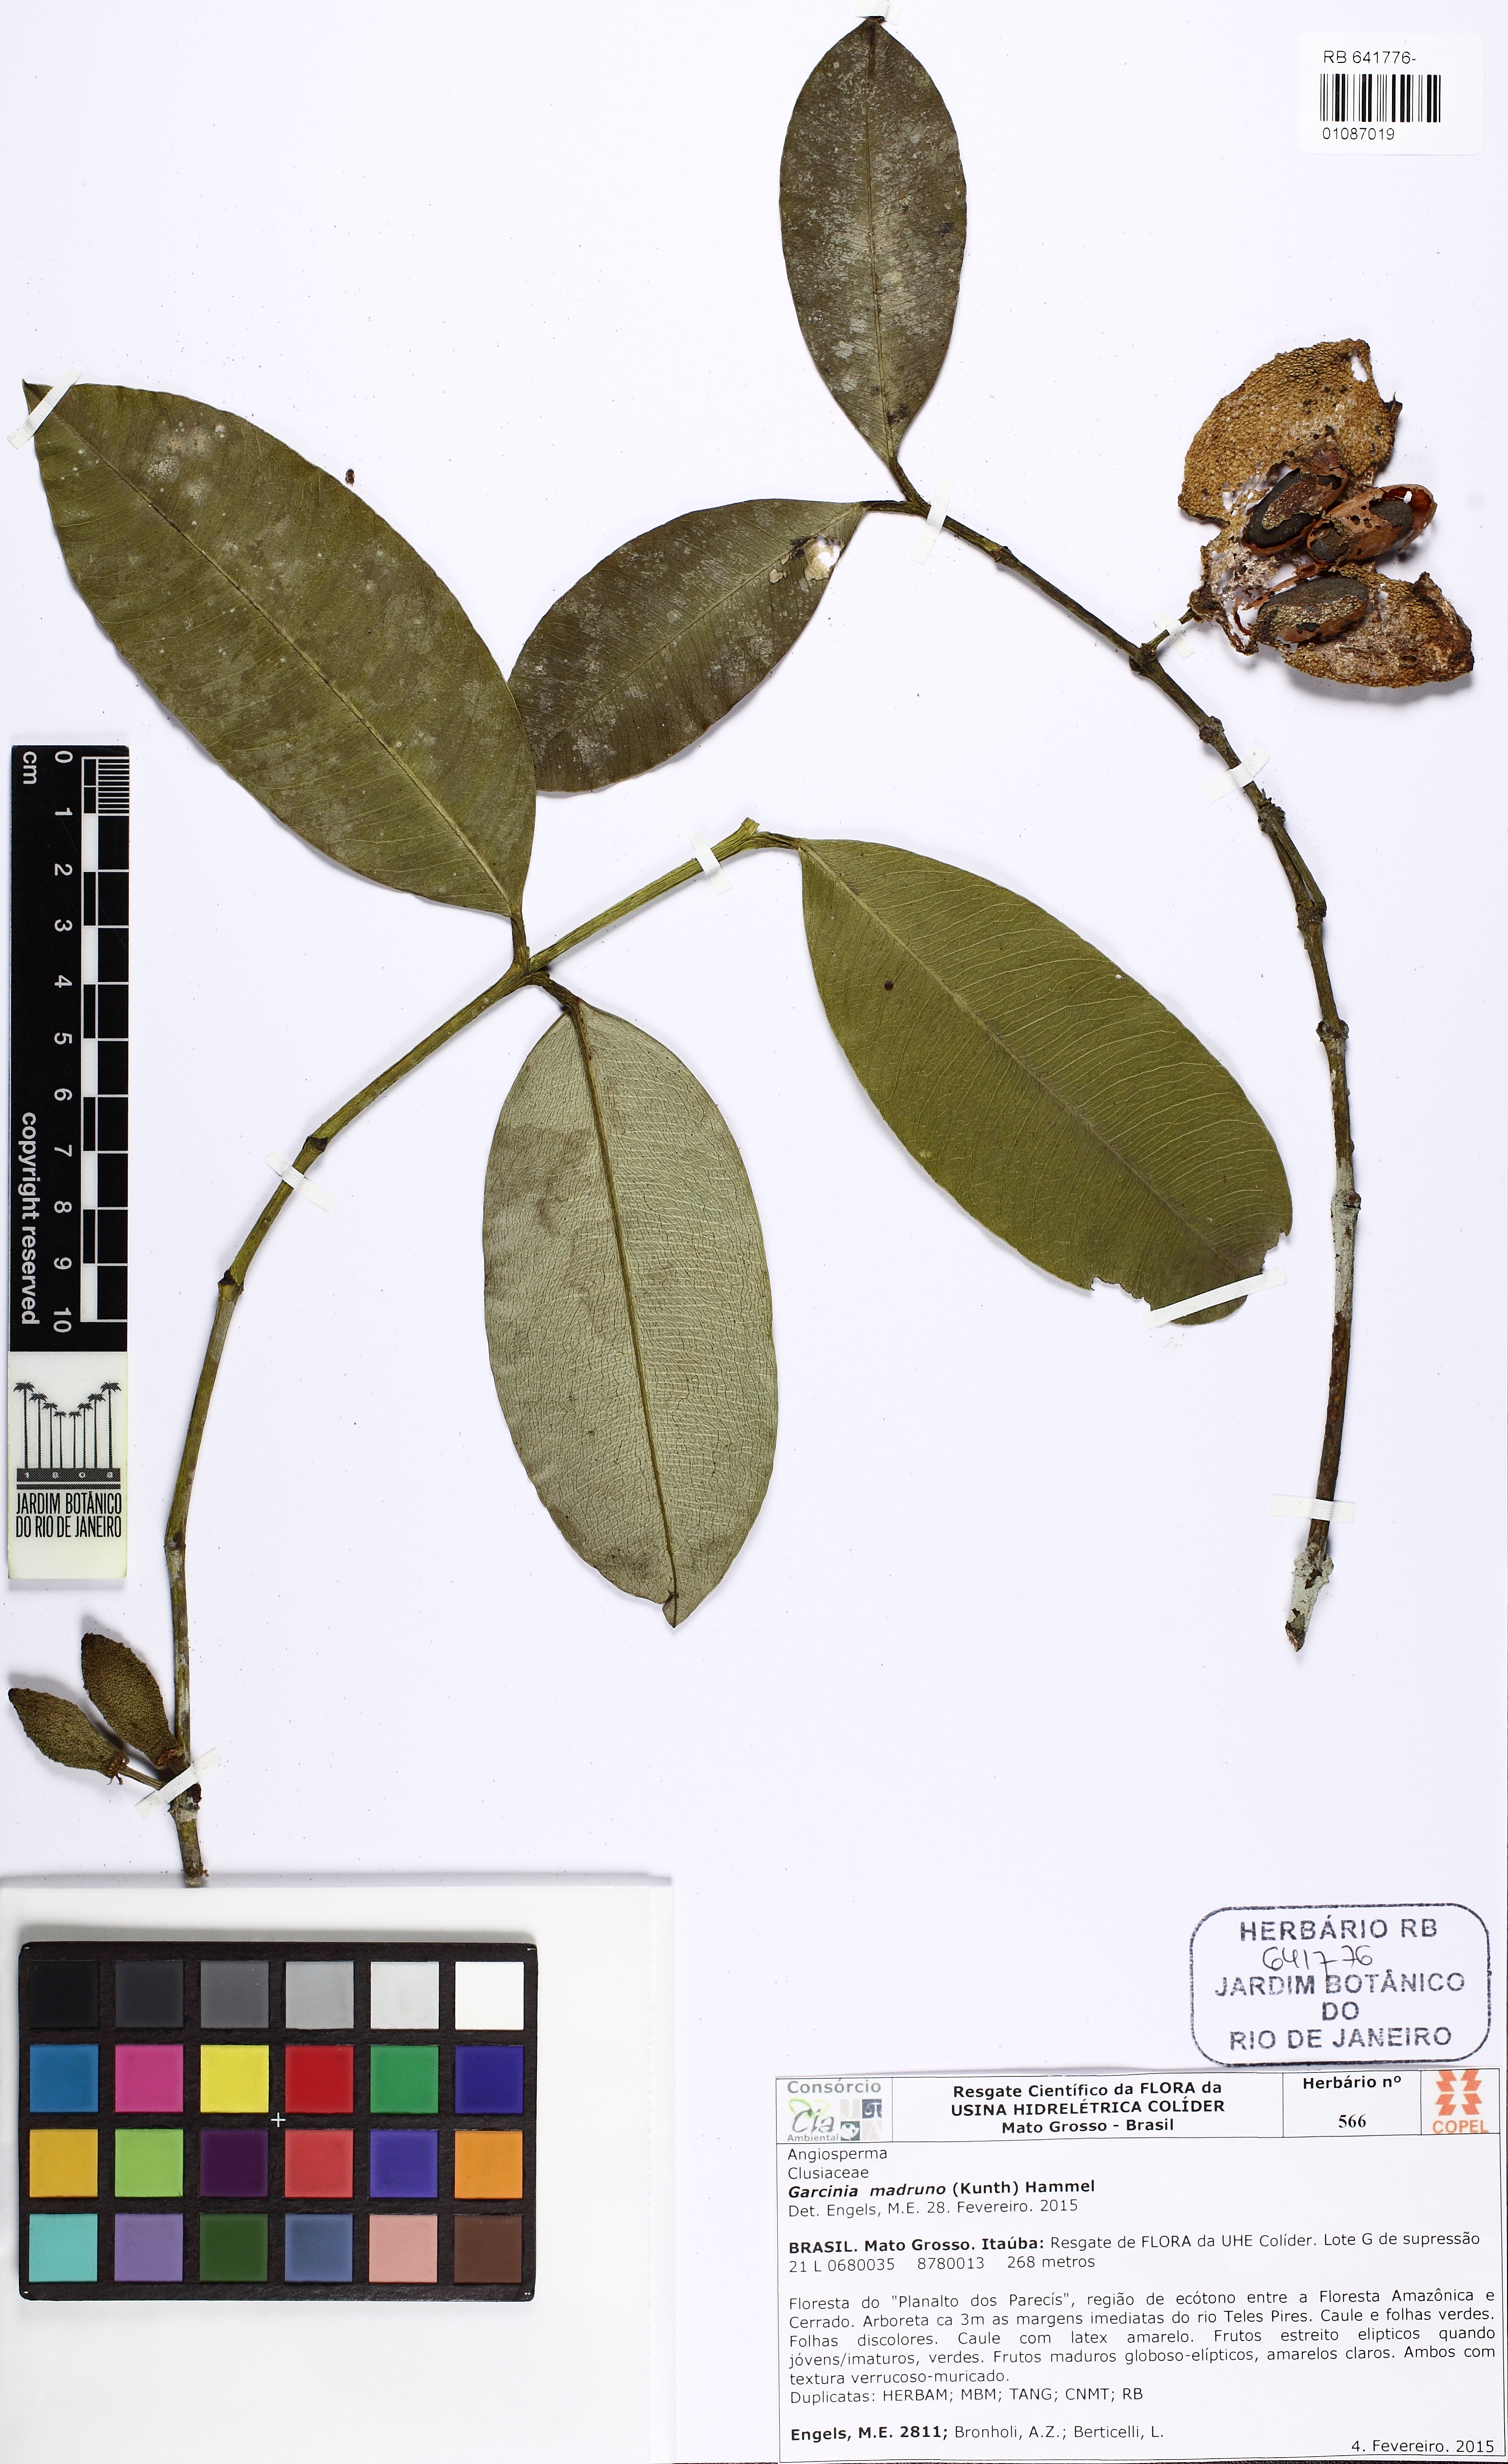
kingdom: Plantae
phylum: Tracheophyta
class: Magnoliopsida
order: Malpighiales
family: Clusiaceae
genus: Garcinia
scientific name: Garcinia madruno
